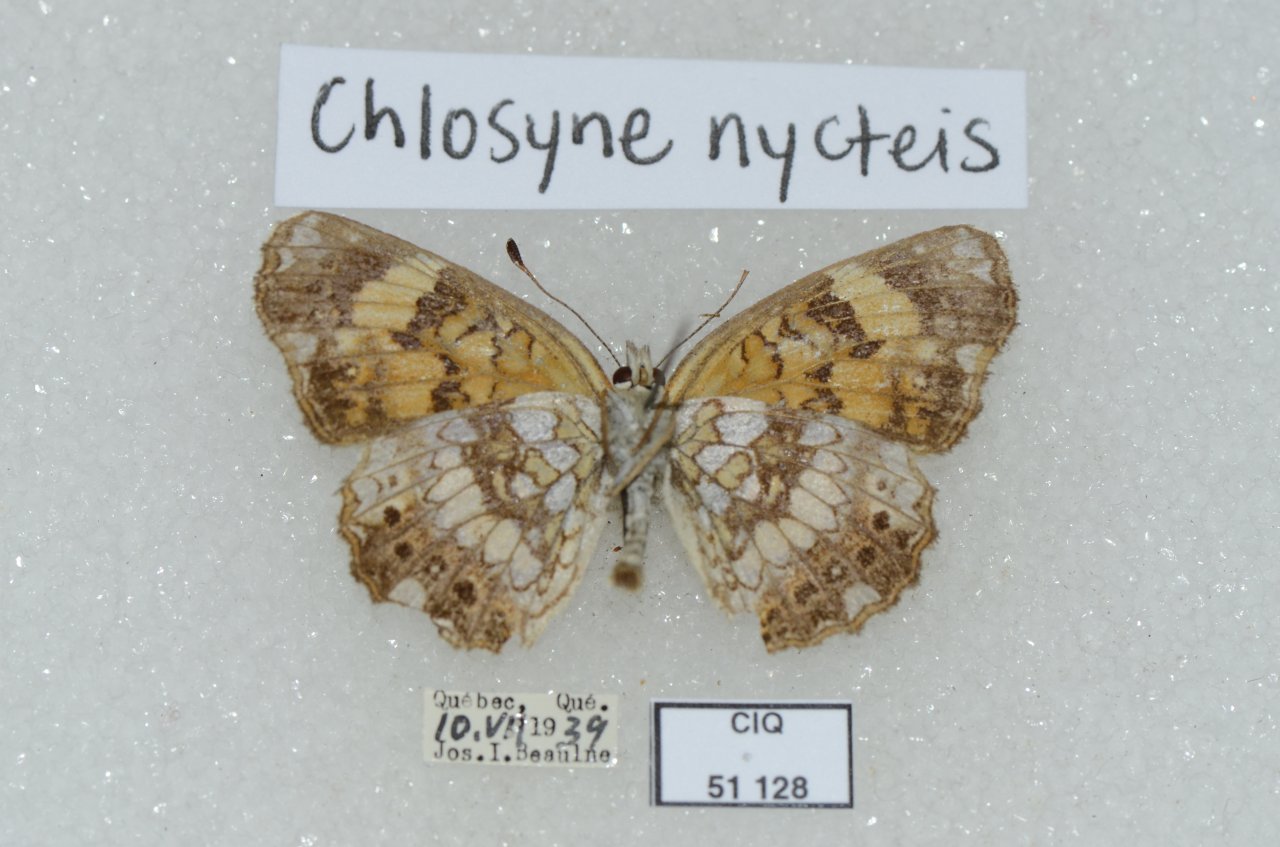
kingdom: Animalia
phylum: Arthropoda
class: Insecta
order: Lepidoptera
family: Nymphalidae
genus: Chlosyne
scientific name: Chlosyne nycteis
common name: Silvery Checkerspot
